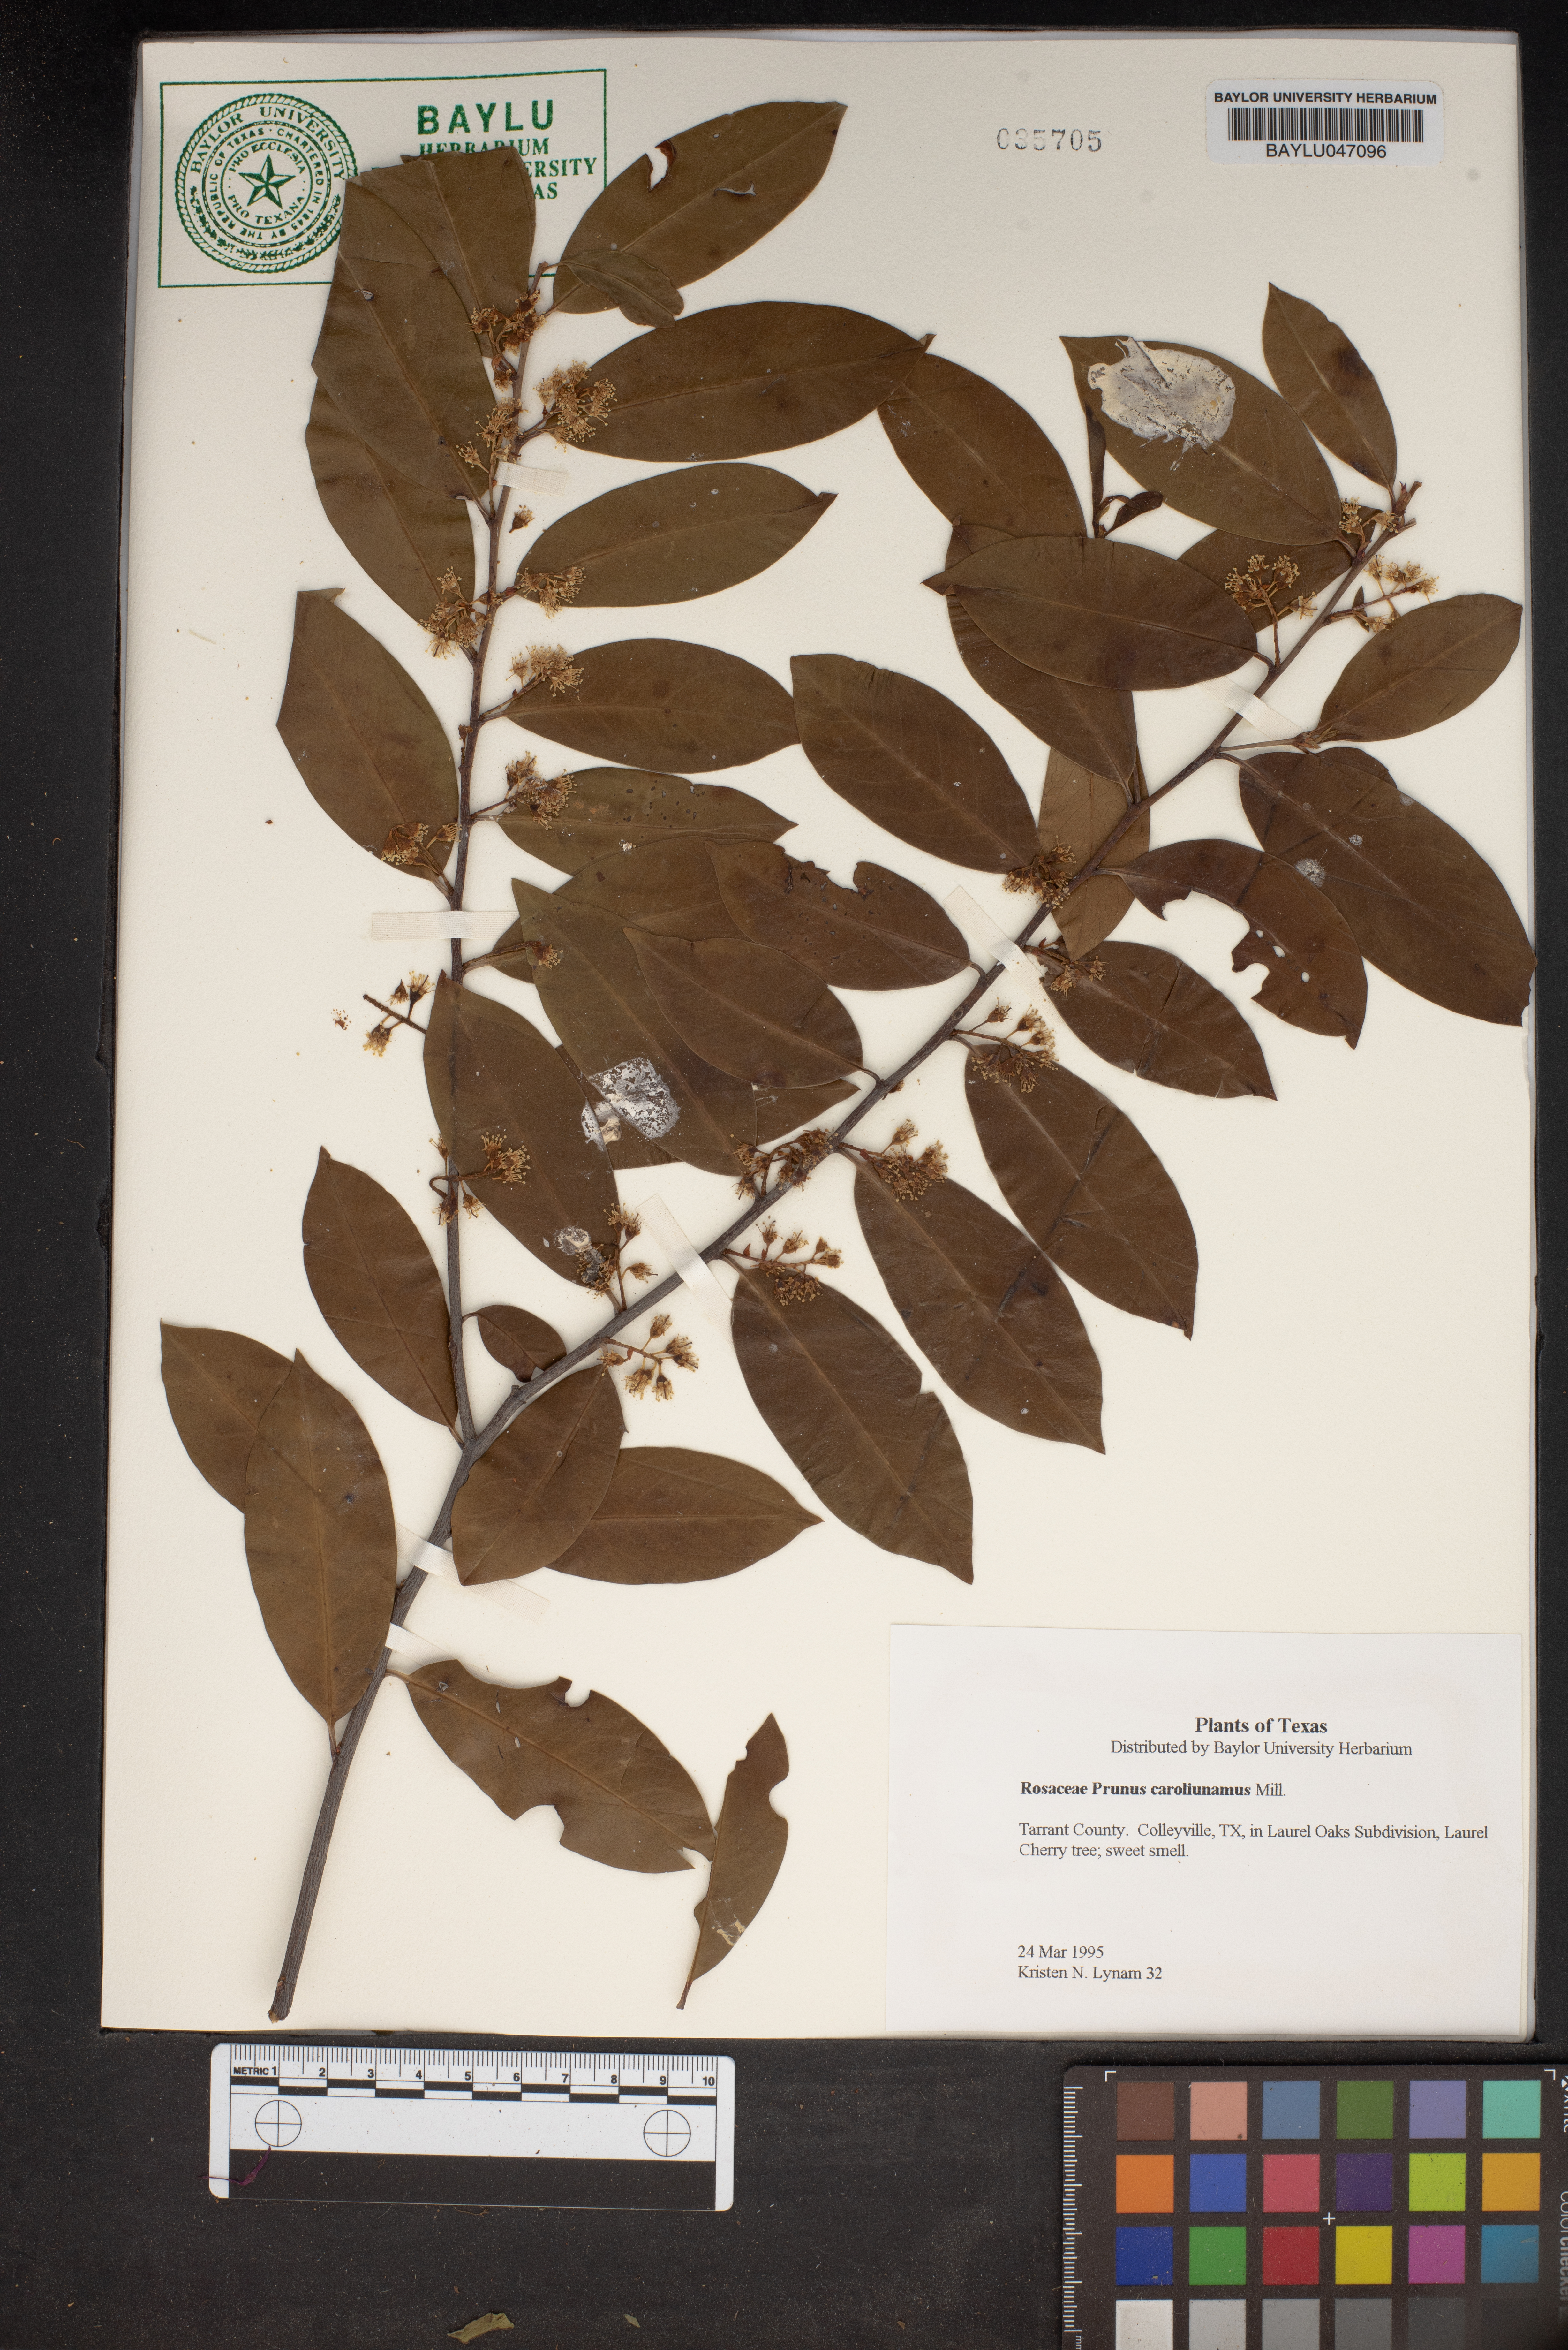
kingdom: Plantae
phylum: Tracheophyta
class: Magnoliopsida
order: Rosales
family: Rosaceae
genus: Prunus
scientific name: Prunus caroliniana
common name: Carolina laurel cherry
